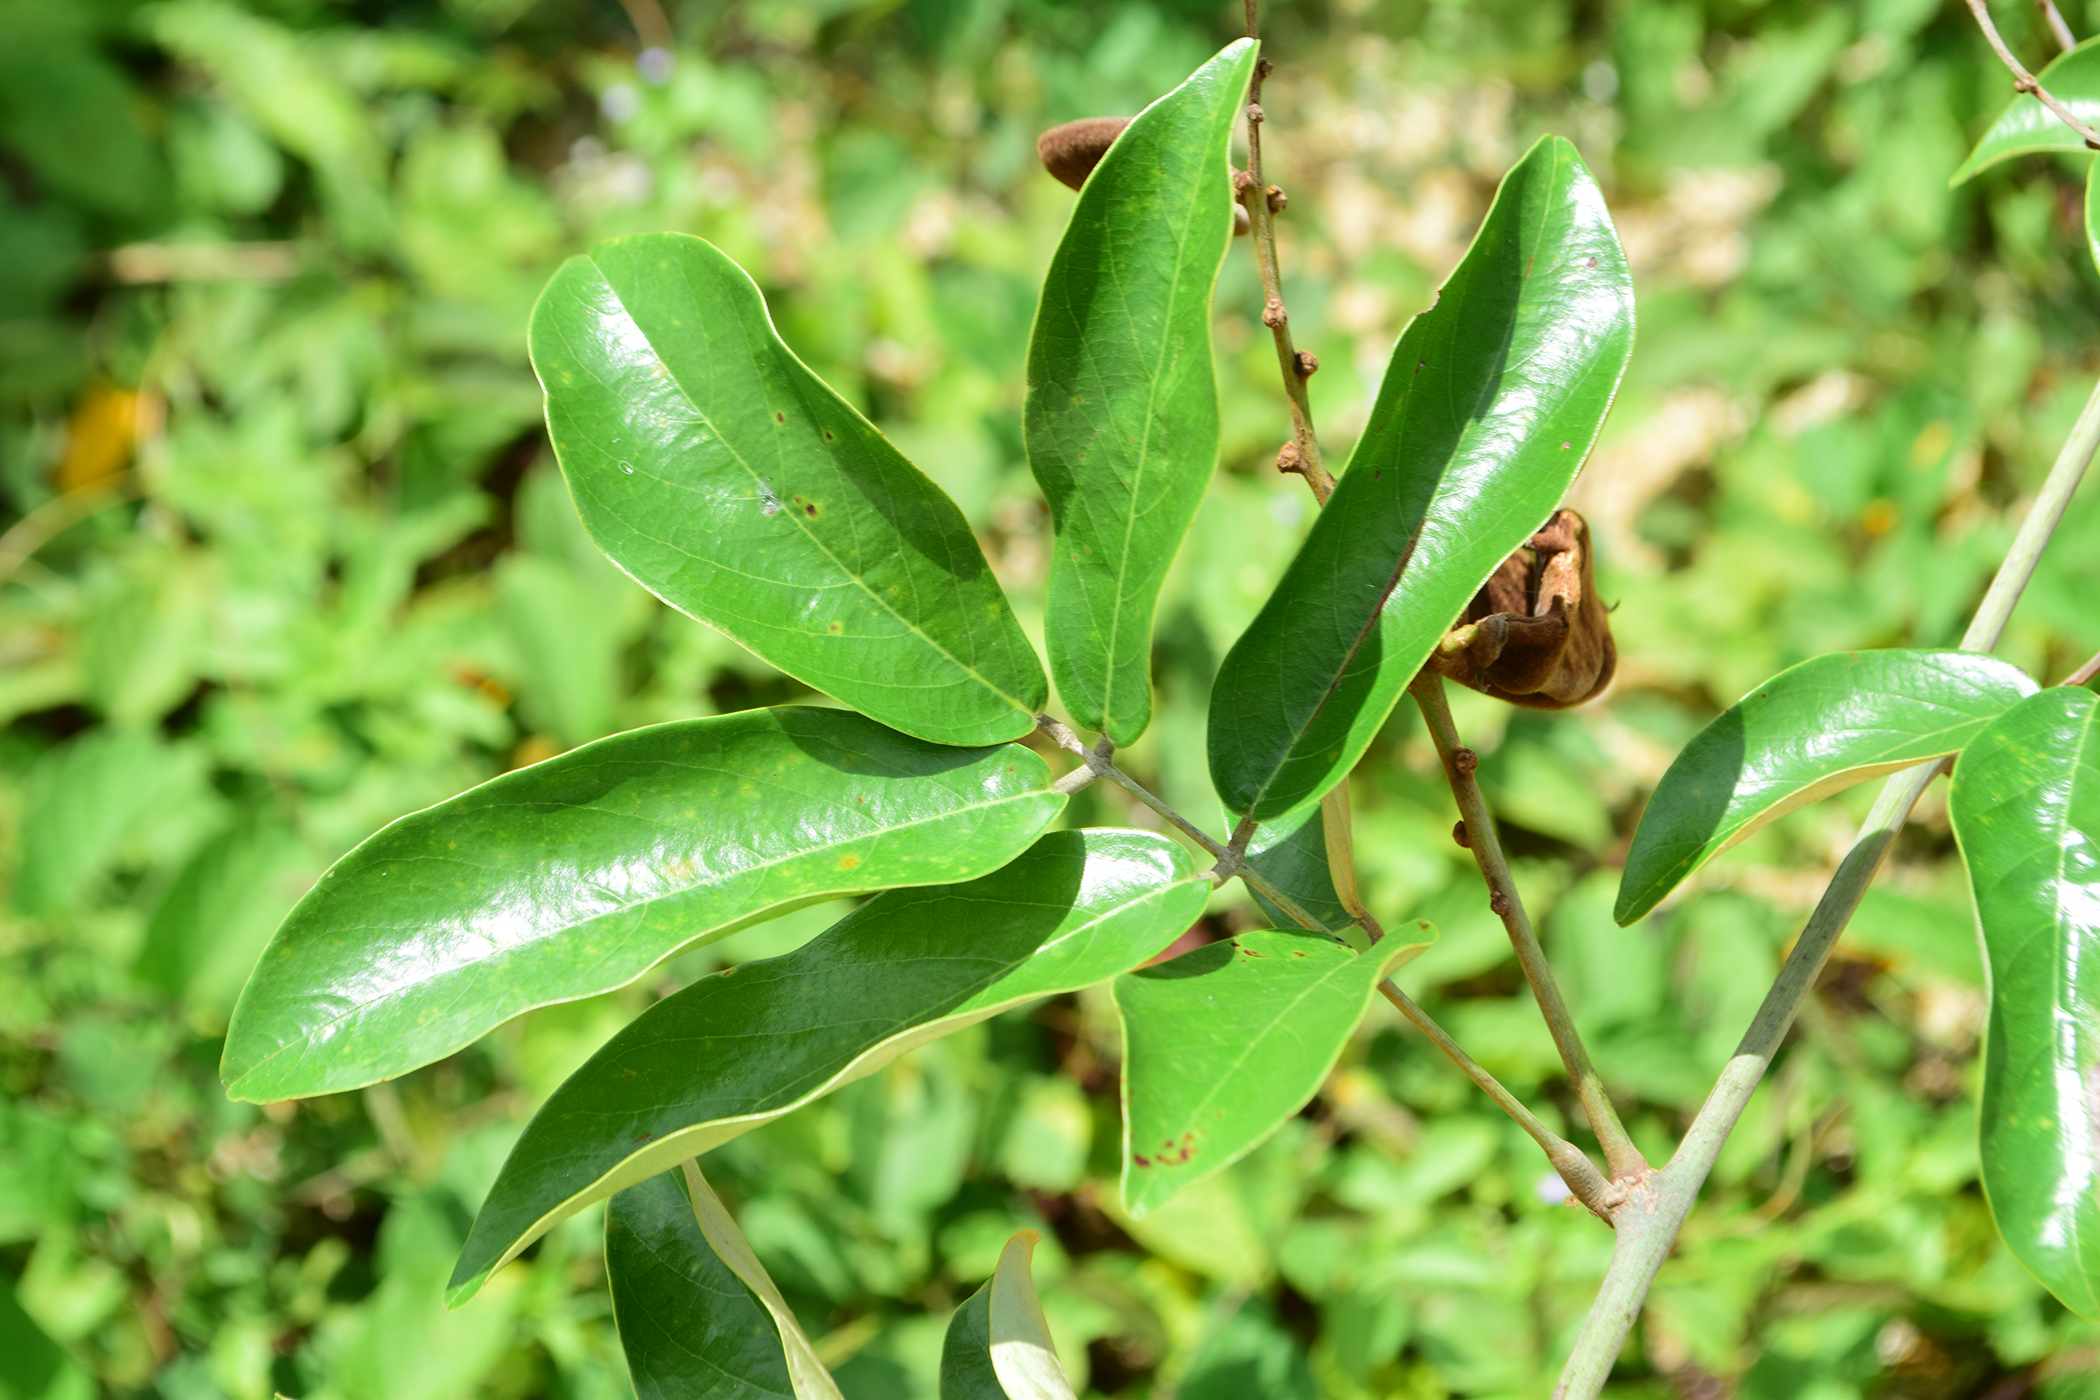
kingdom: Plantae
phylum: Tracheophyta
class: Magnoliopsida
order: Fabales
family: Fabaceae
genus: Millettia
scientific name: Millettia sericea
